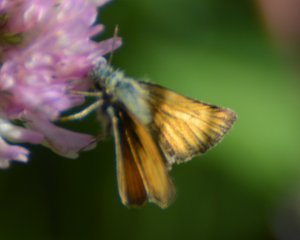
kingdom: Animalia
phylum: Arthropoda
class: Insecta
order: Lepidoptera
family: Hesperiidae
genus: Thymelicus
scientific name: Thymelicus lineola
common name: European Skipper
